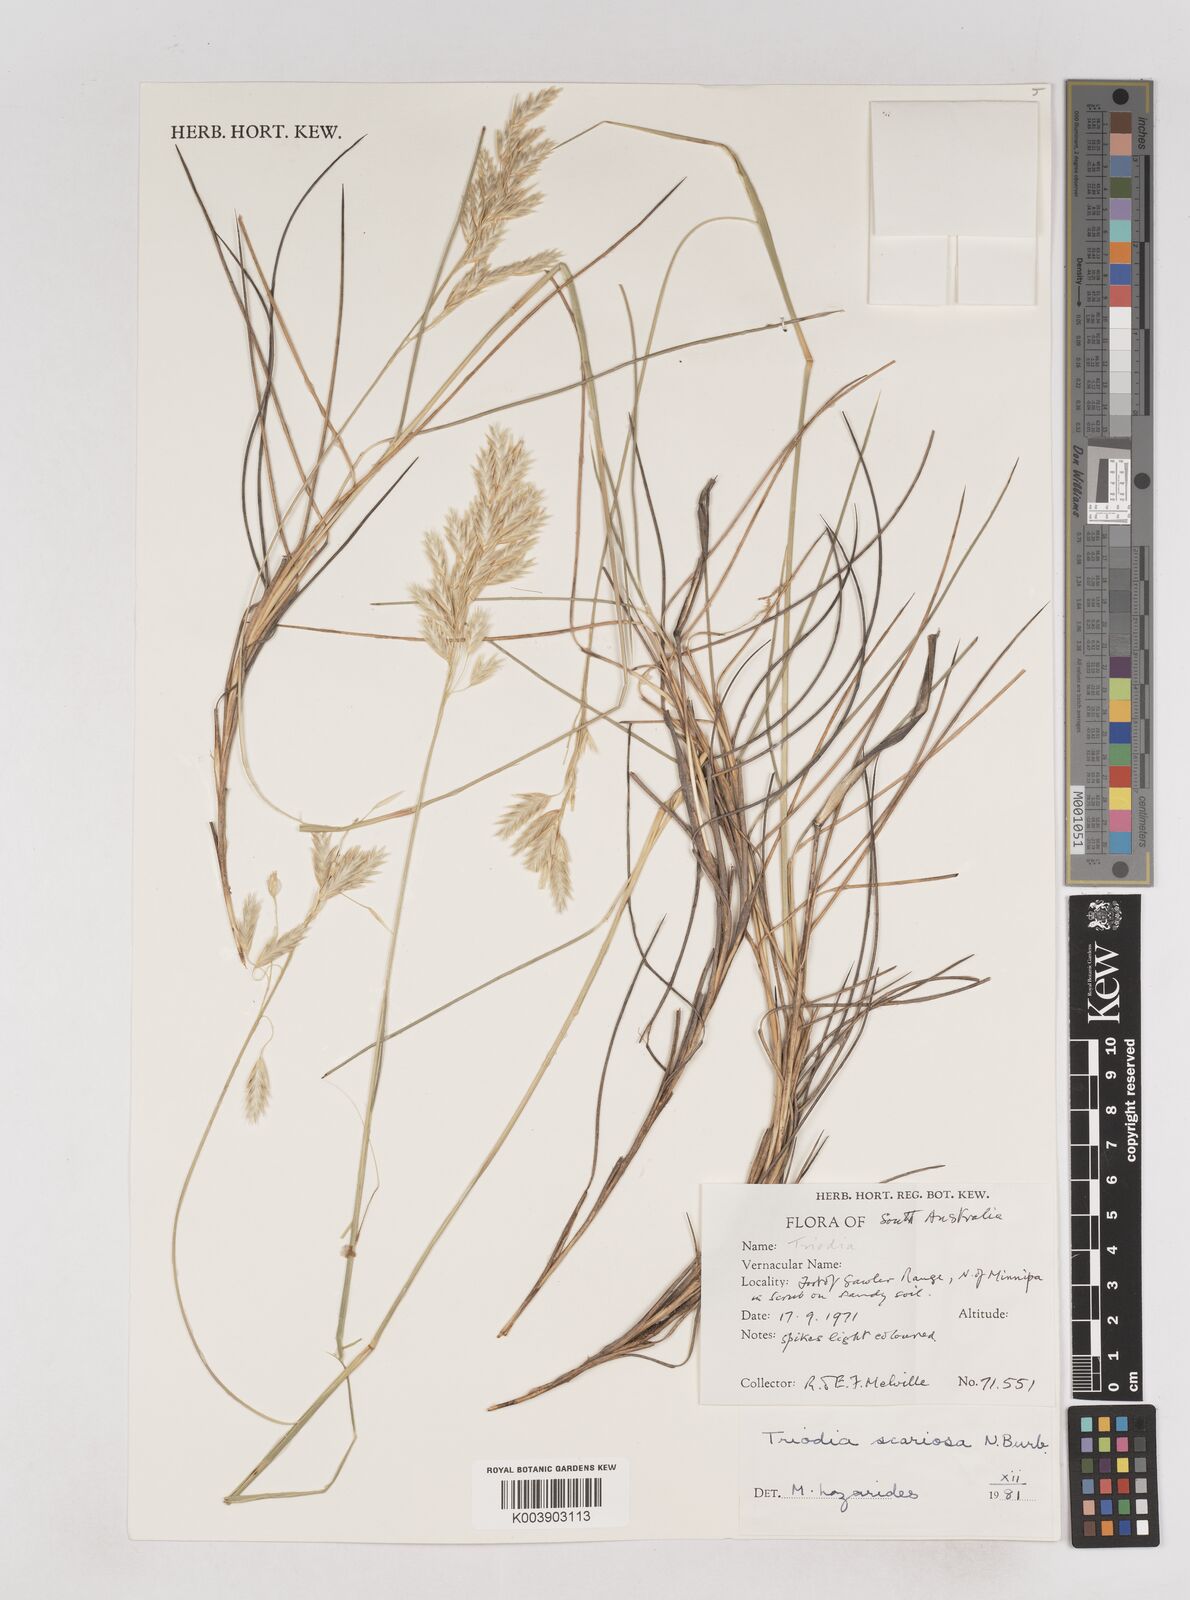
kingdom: Plantae
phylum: Tracheophyta
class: Liliopsida
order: Poales
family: Poaceae
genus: Triodia
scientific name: Triodia scariosa
